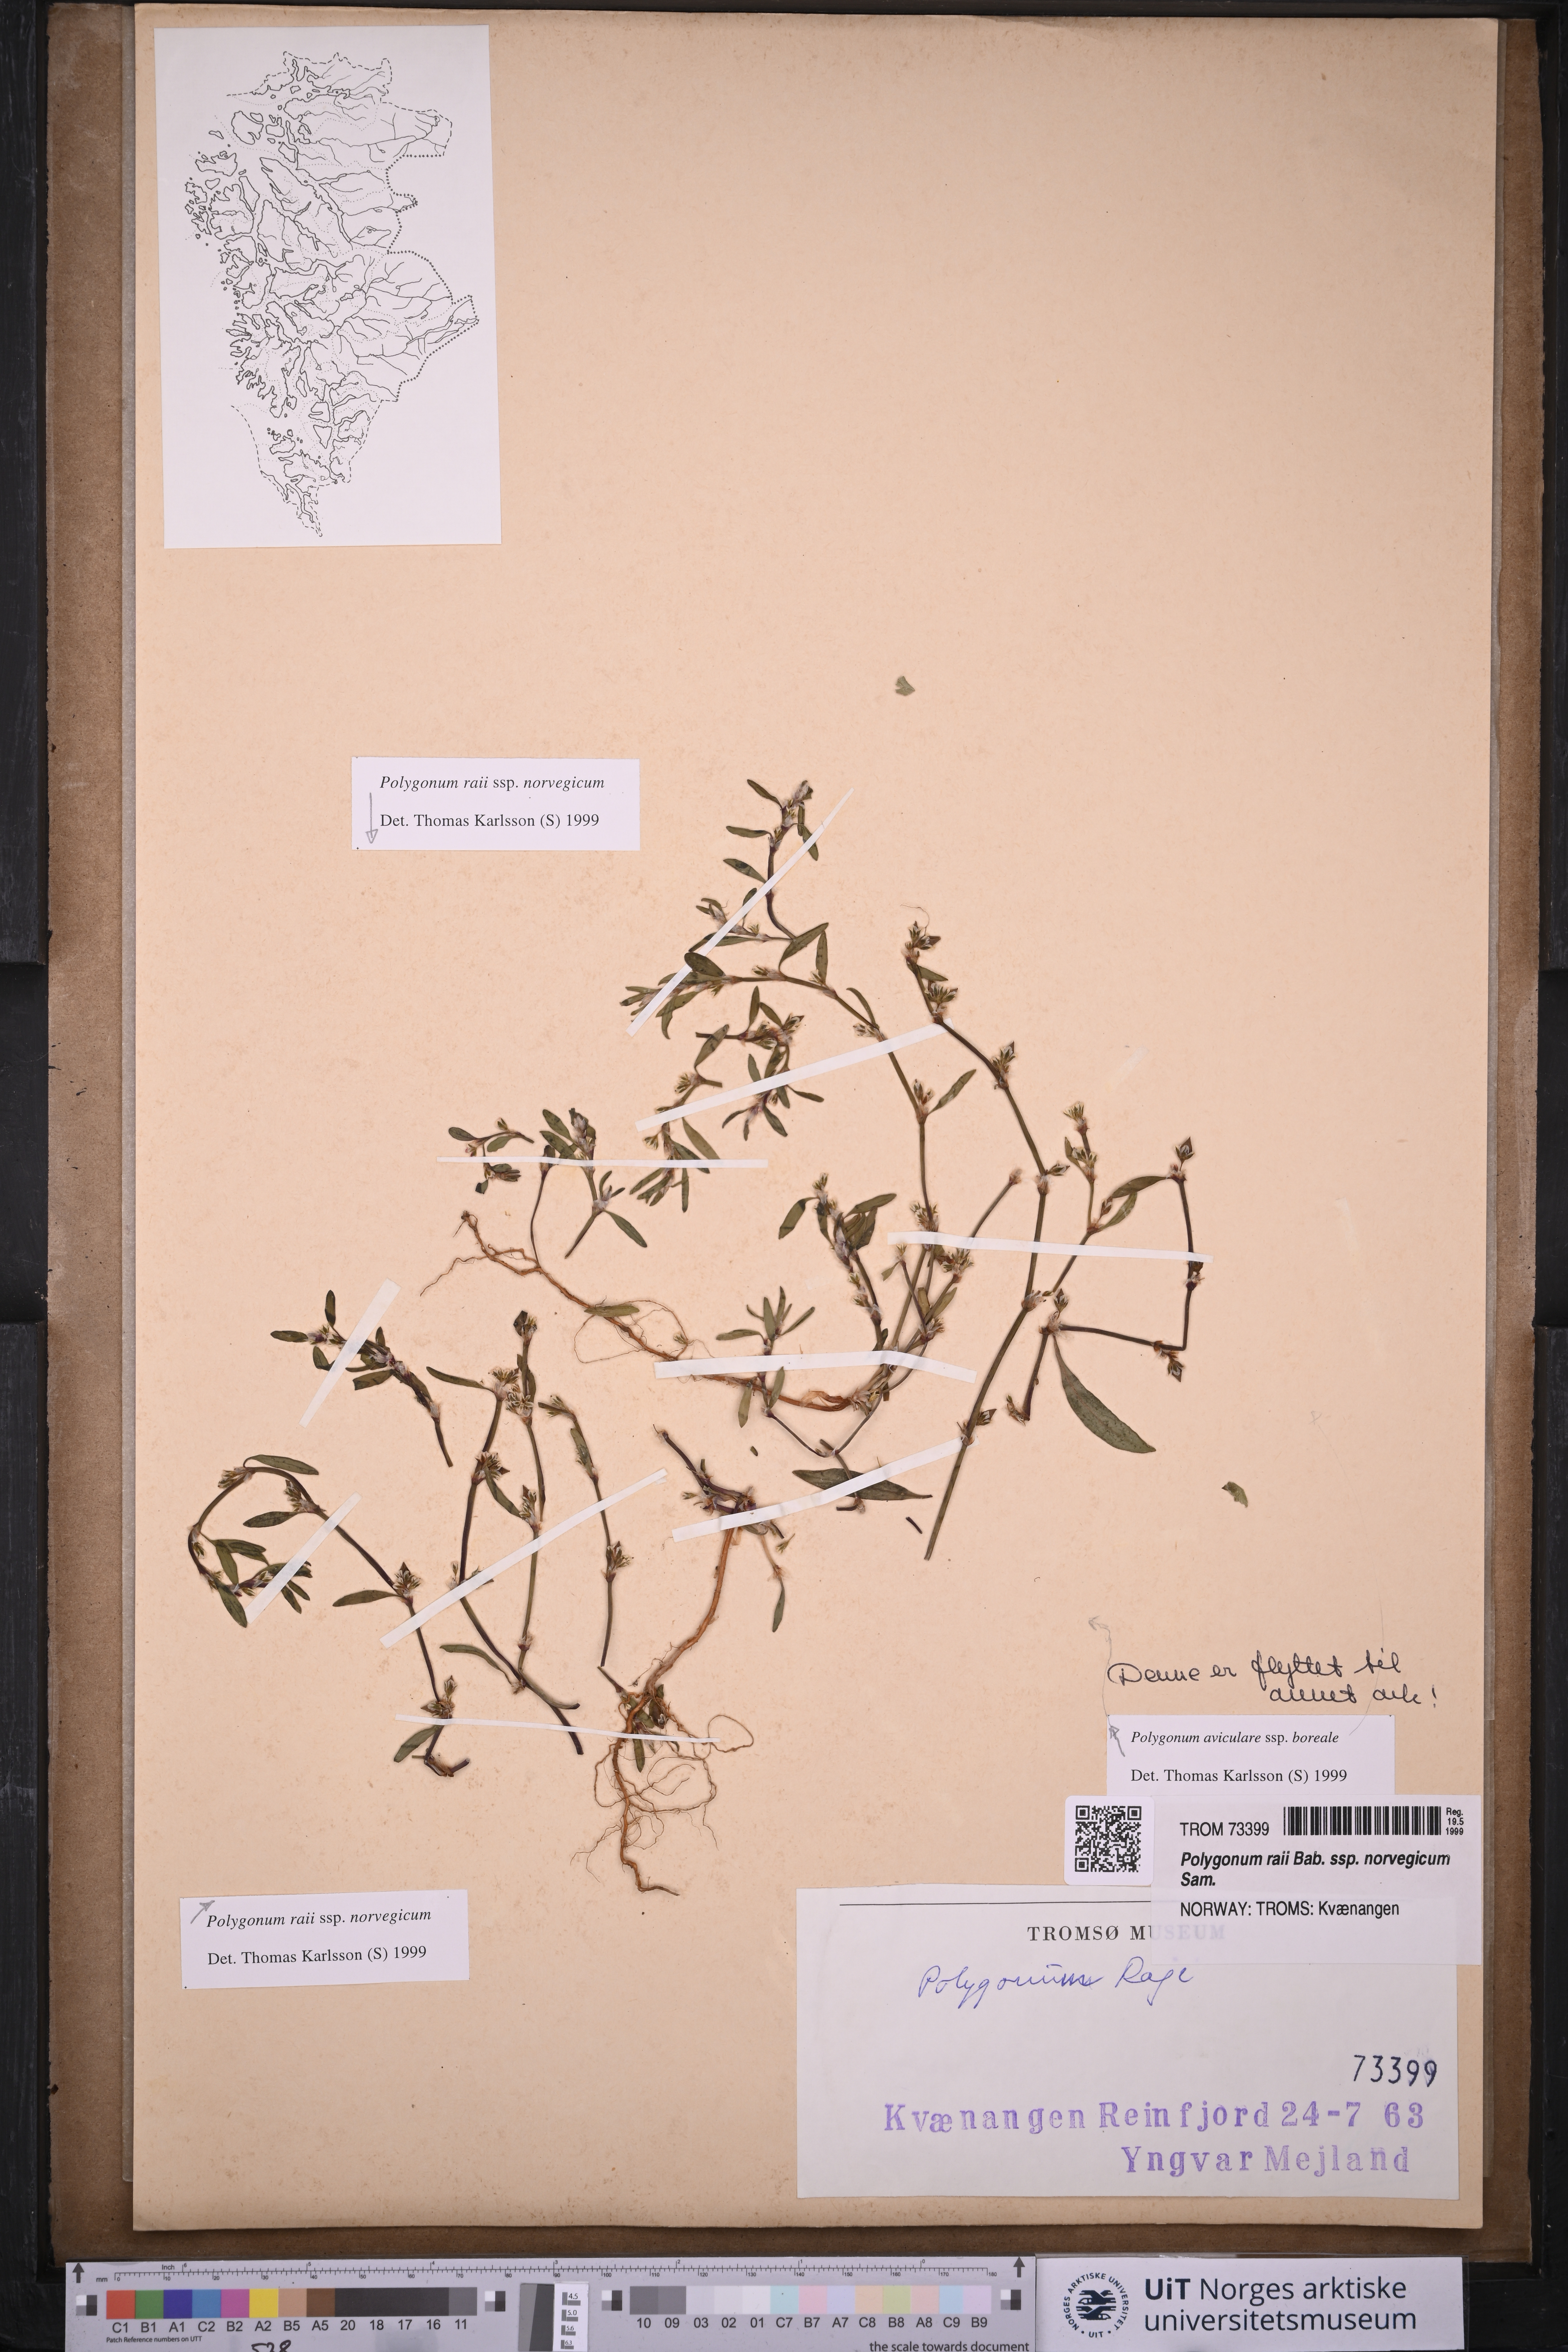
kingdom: Plantae
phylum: Tracheophyta
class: Magnoliopsida
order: Caryophyllales
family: Polygonaceae
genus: Polygonum
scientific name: Polygonum norvegicum
